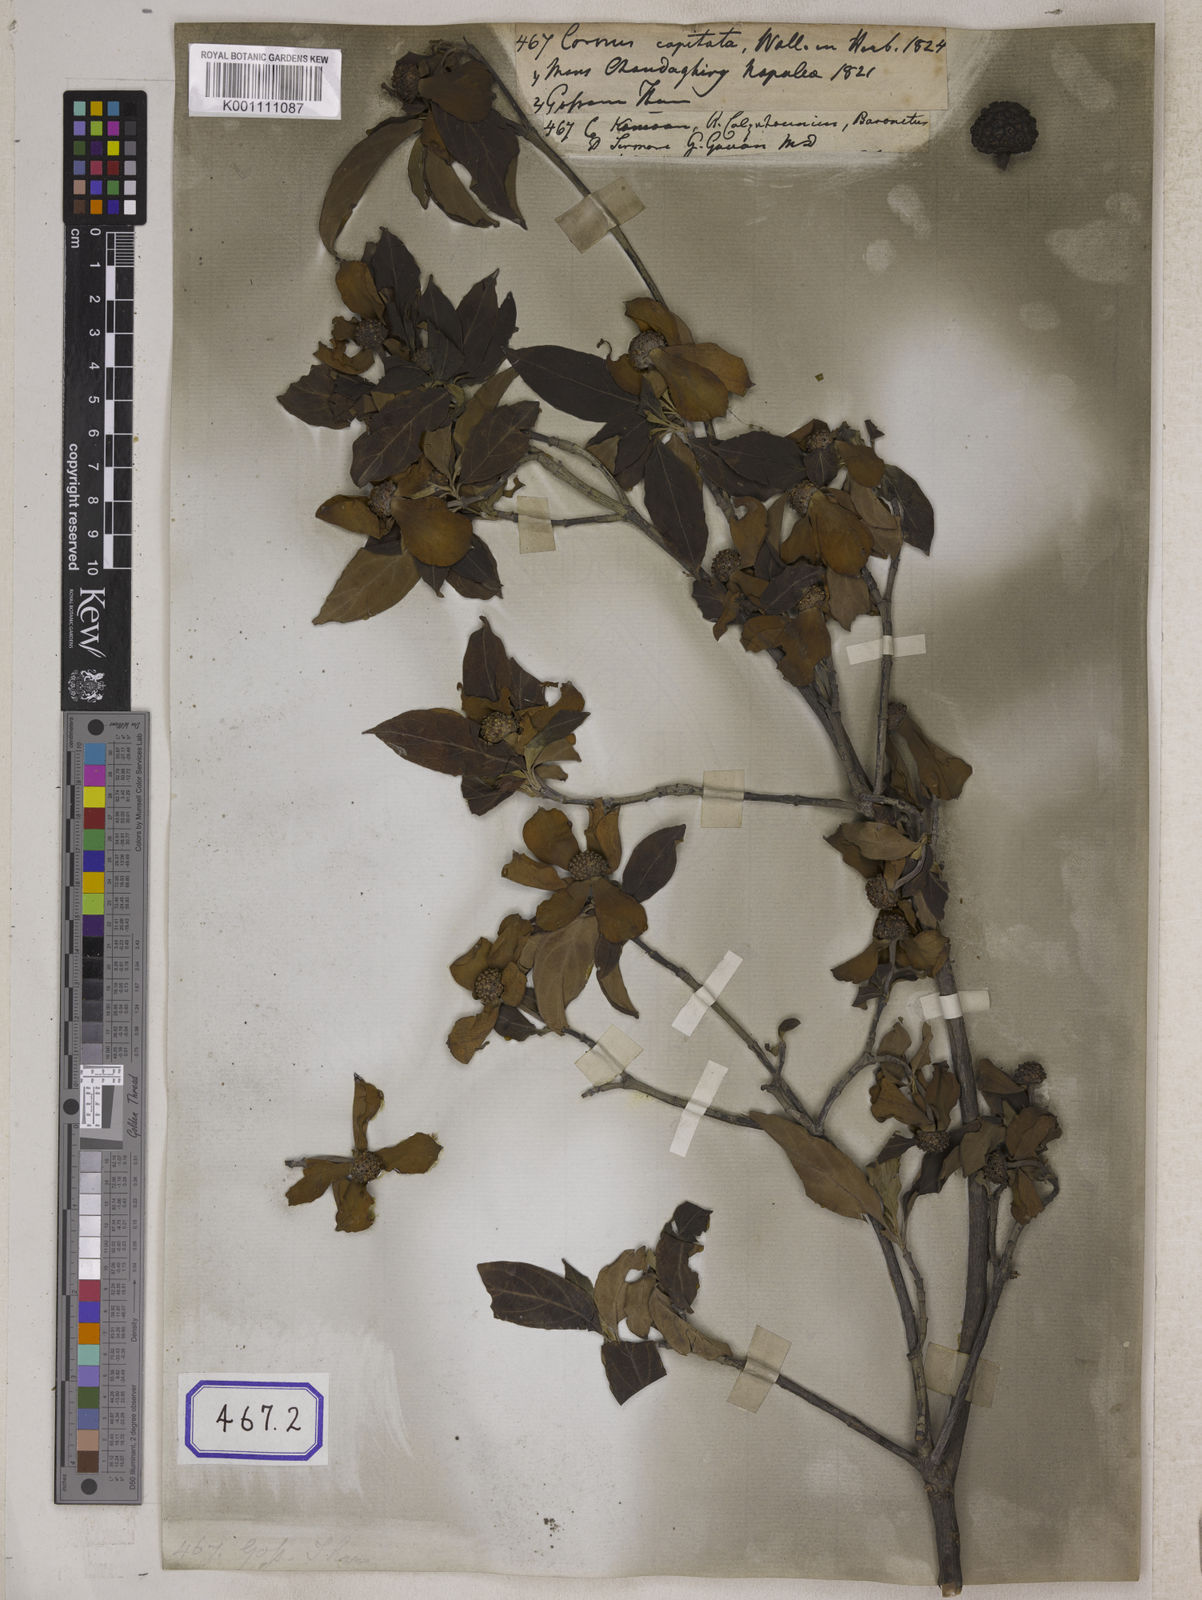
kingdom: Plantae
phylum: Tracheophyta
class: Magnoliopsida
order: Cornales
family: Cornaceae
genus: Cornus
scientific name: Cornus capitata
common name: Bentham's cornel
